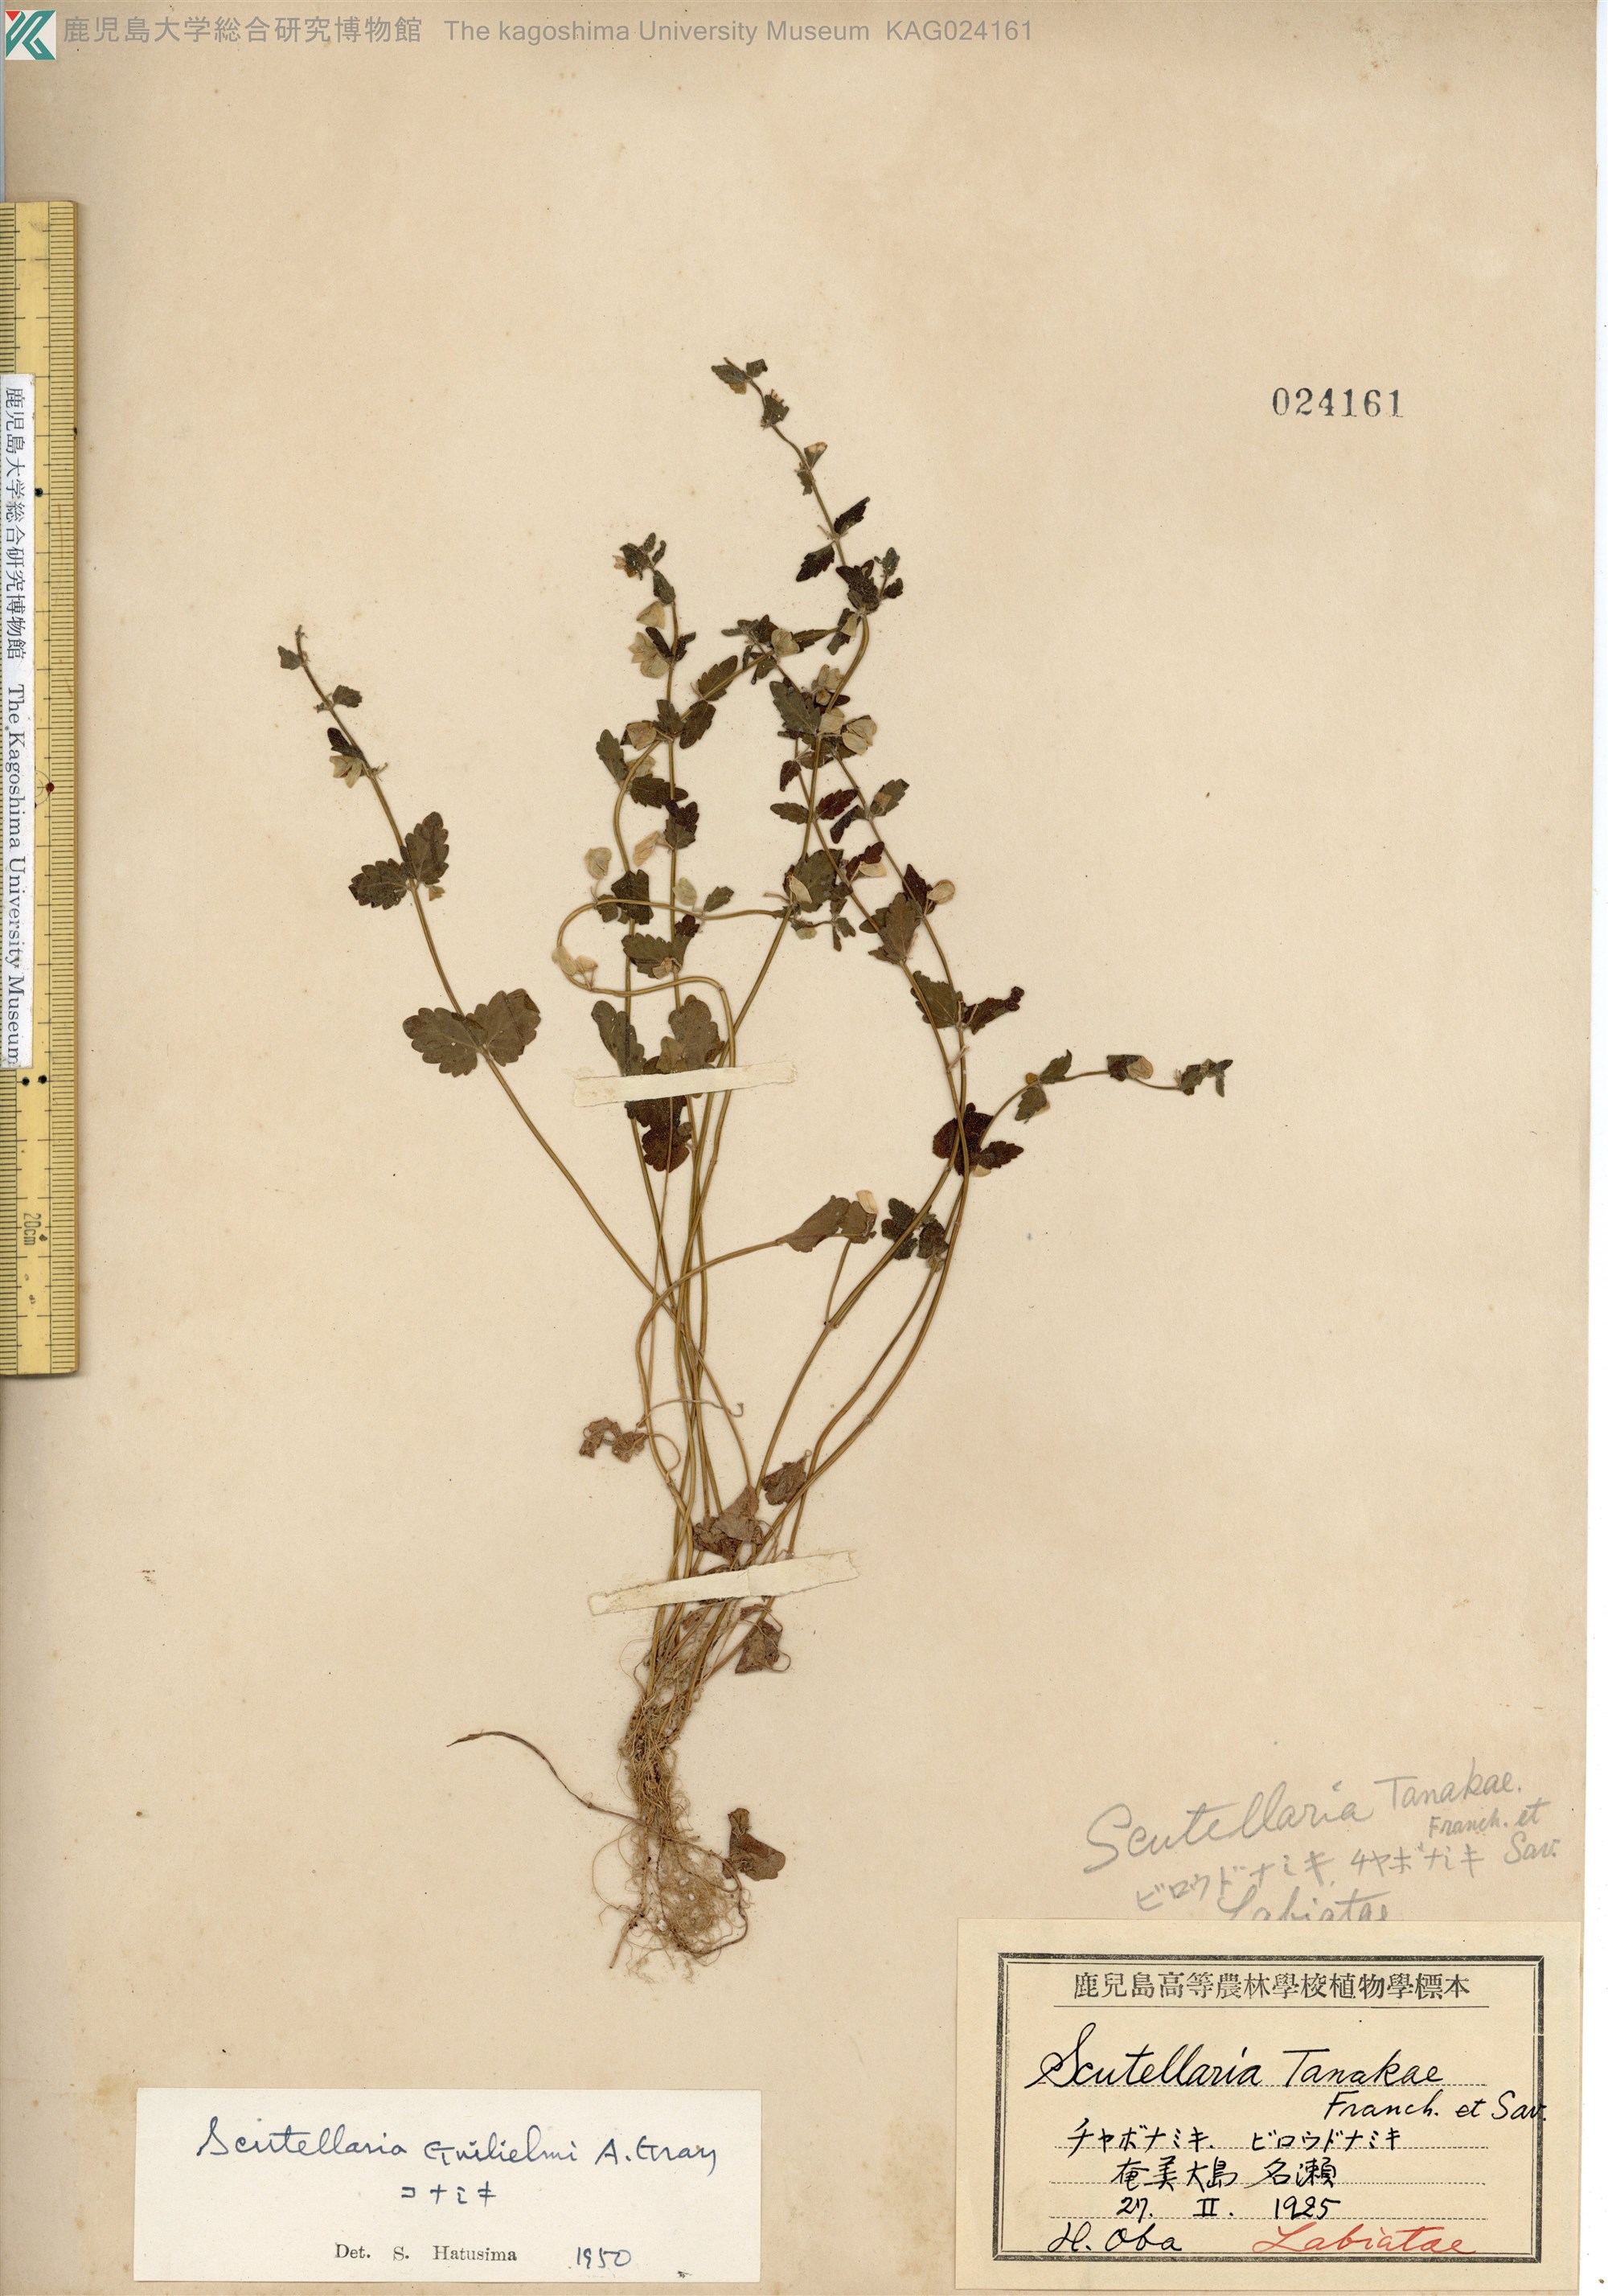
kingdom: Plantae
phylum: Tracheophyta
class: Magnoliopsida
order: Lamiales
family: Lamiaceae
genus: Scutellaria
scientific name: Scutellaria guilielmi
